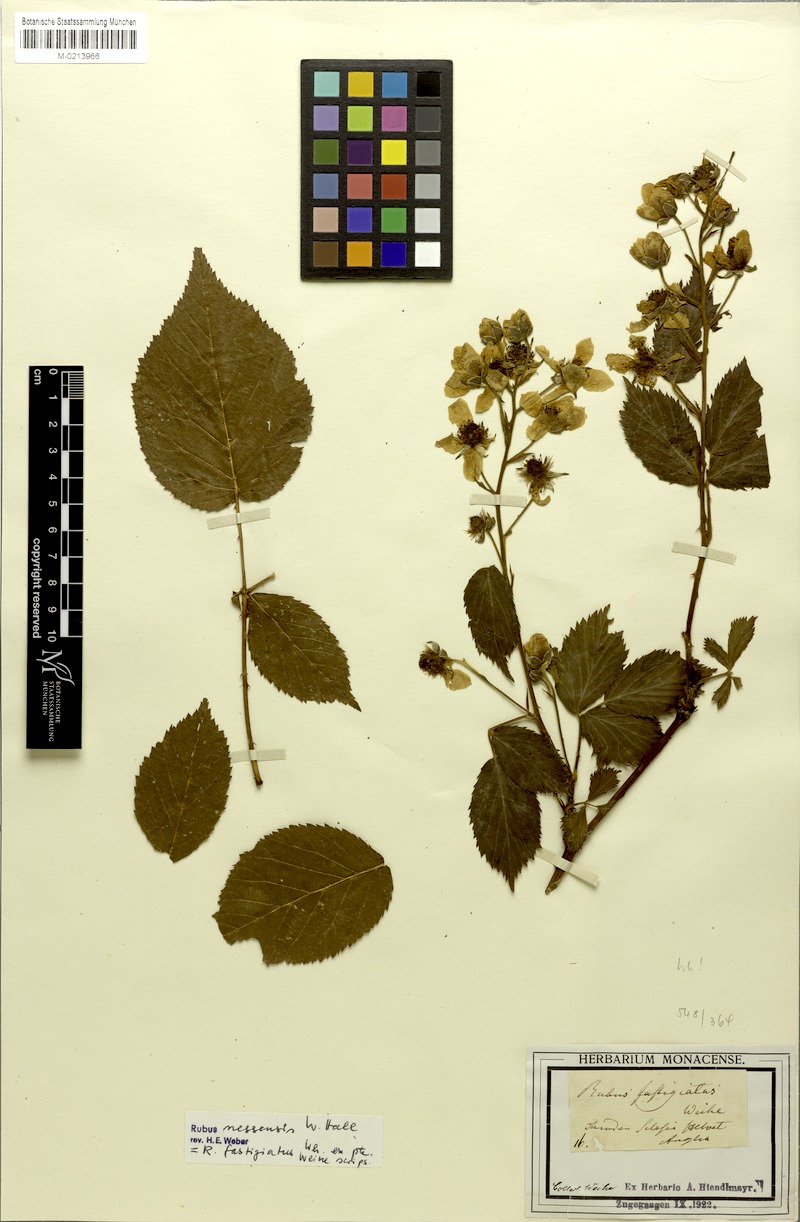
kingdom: Plantae
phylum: Tracheophyta
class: Magnoliopsida
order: Rosales
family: Rosaceae
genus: Rubus
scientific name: Rubus polonicus
